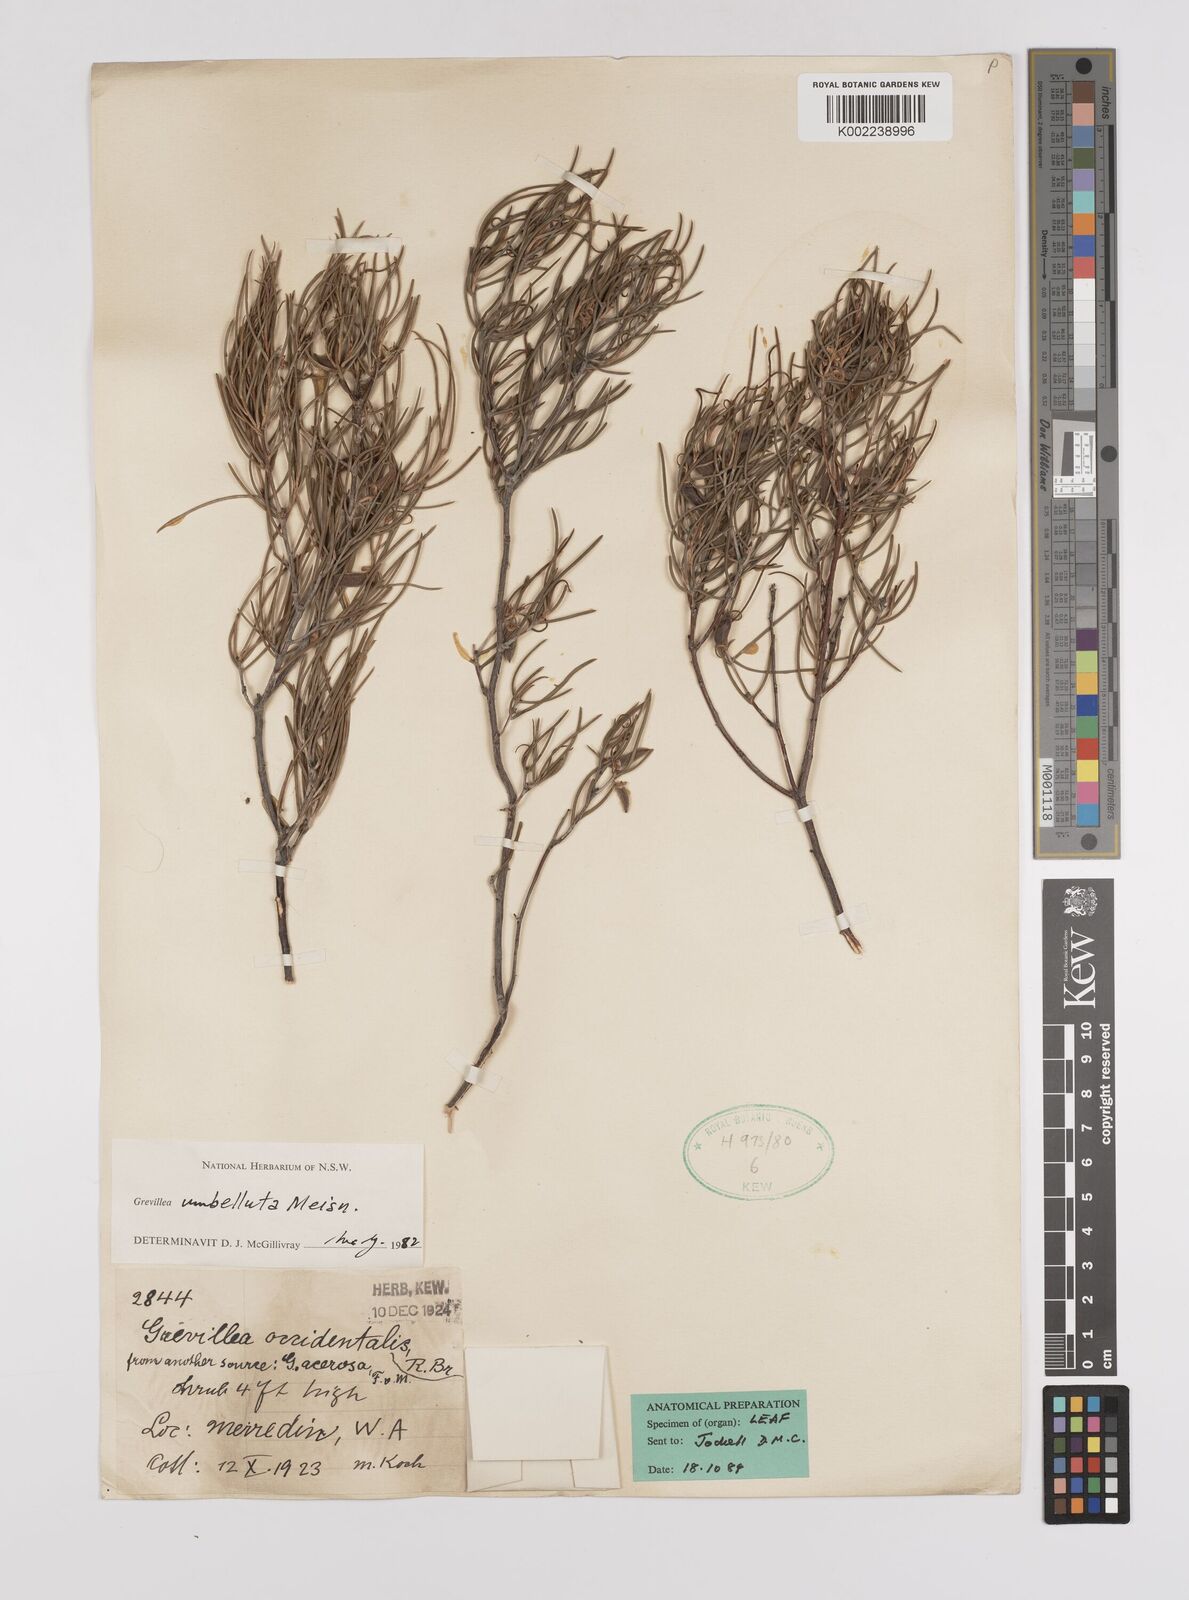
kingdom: Plantae
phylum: Tracheophyta
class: Magnoliopsida
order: Proteales
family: Proteaceae
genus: Grevillea
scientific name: Grevillea umbellulata
